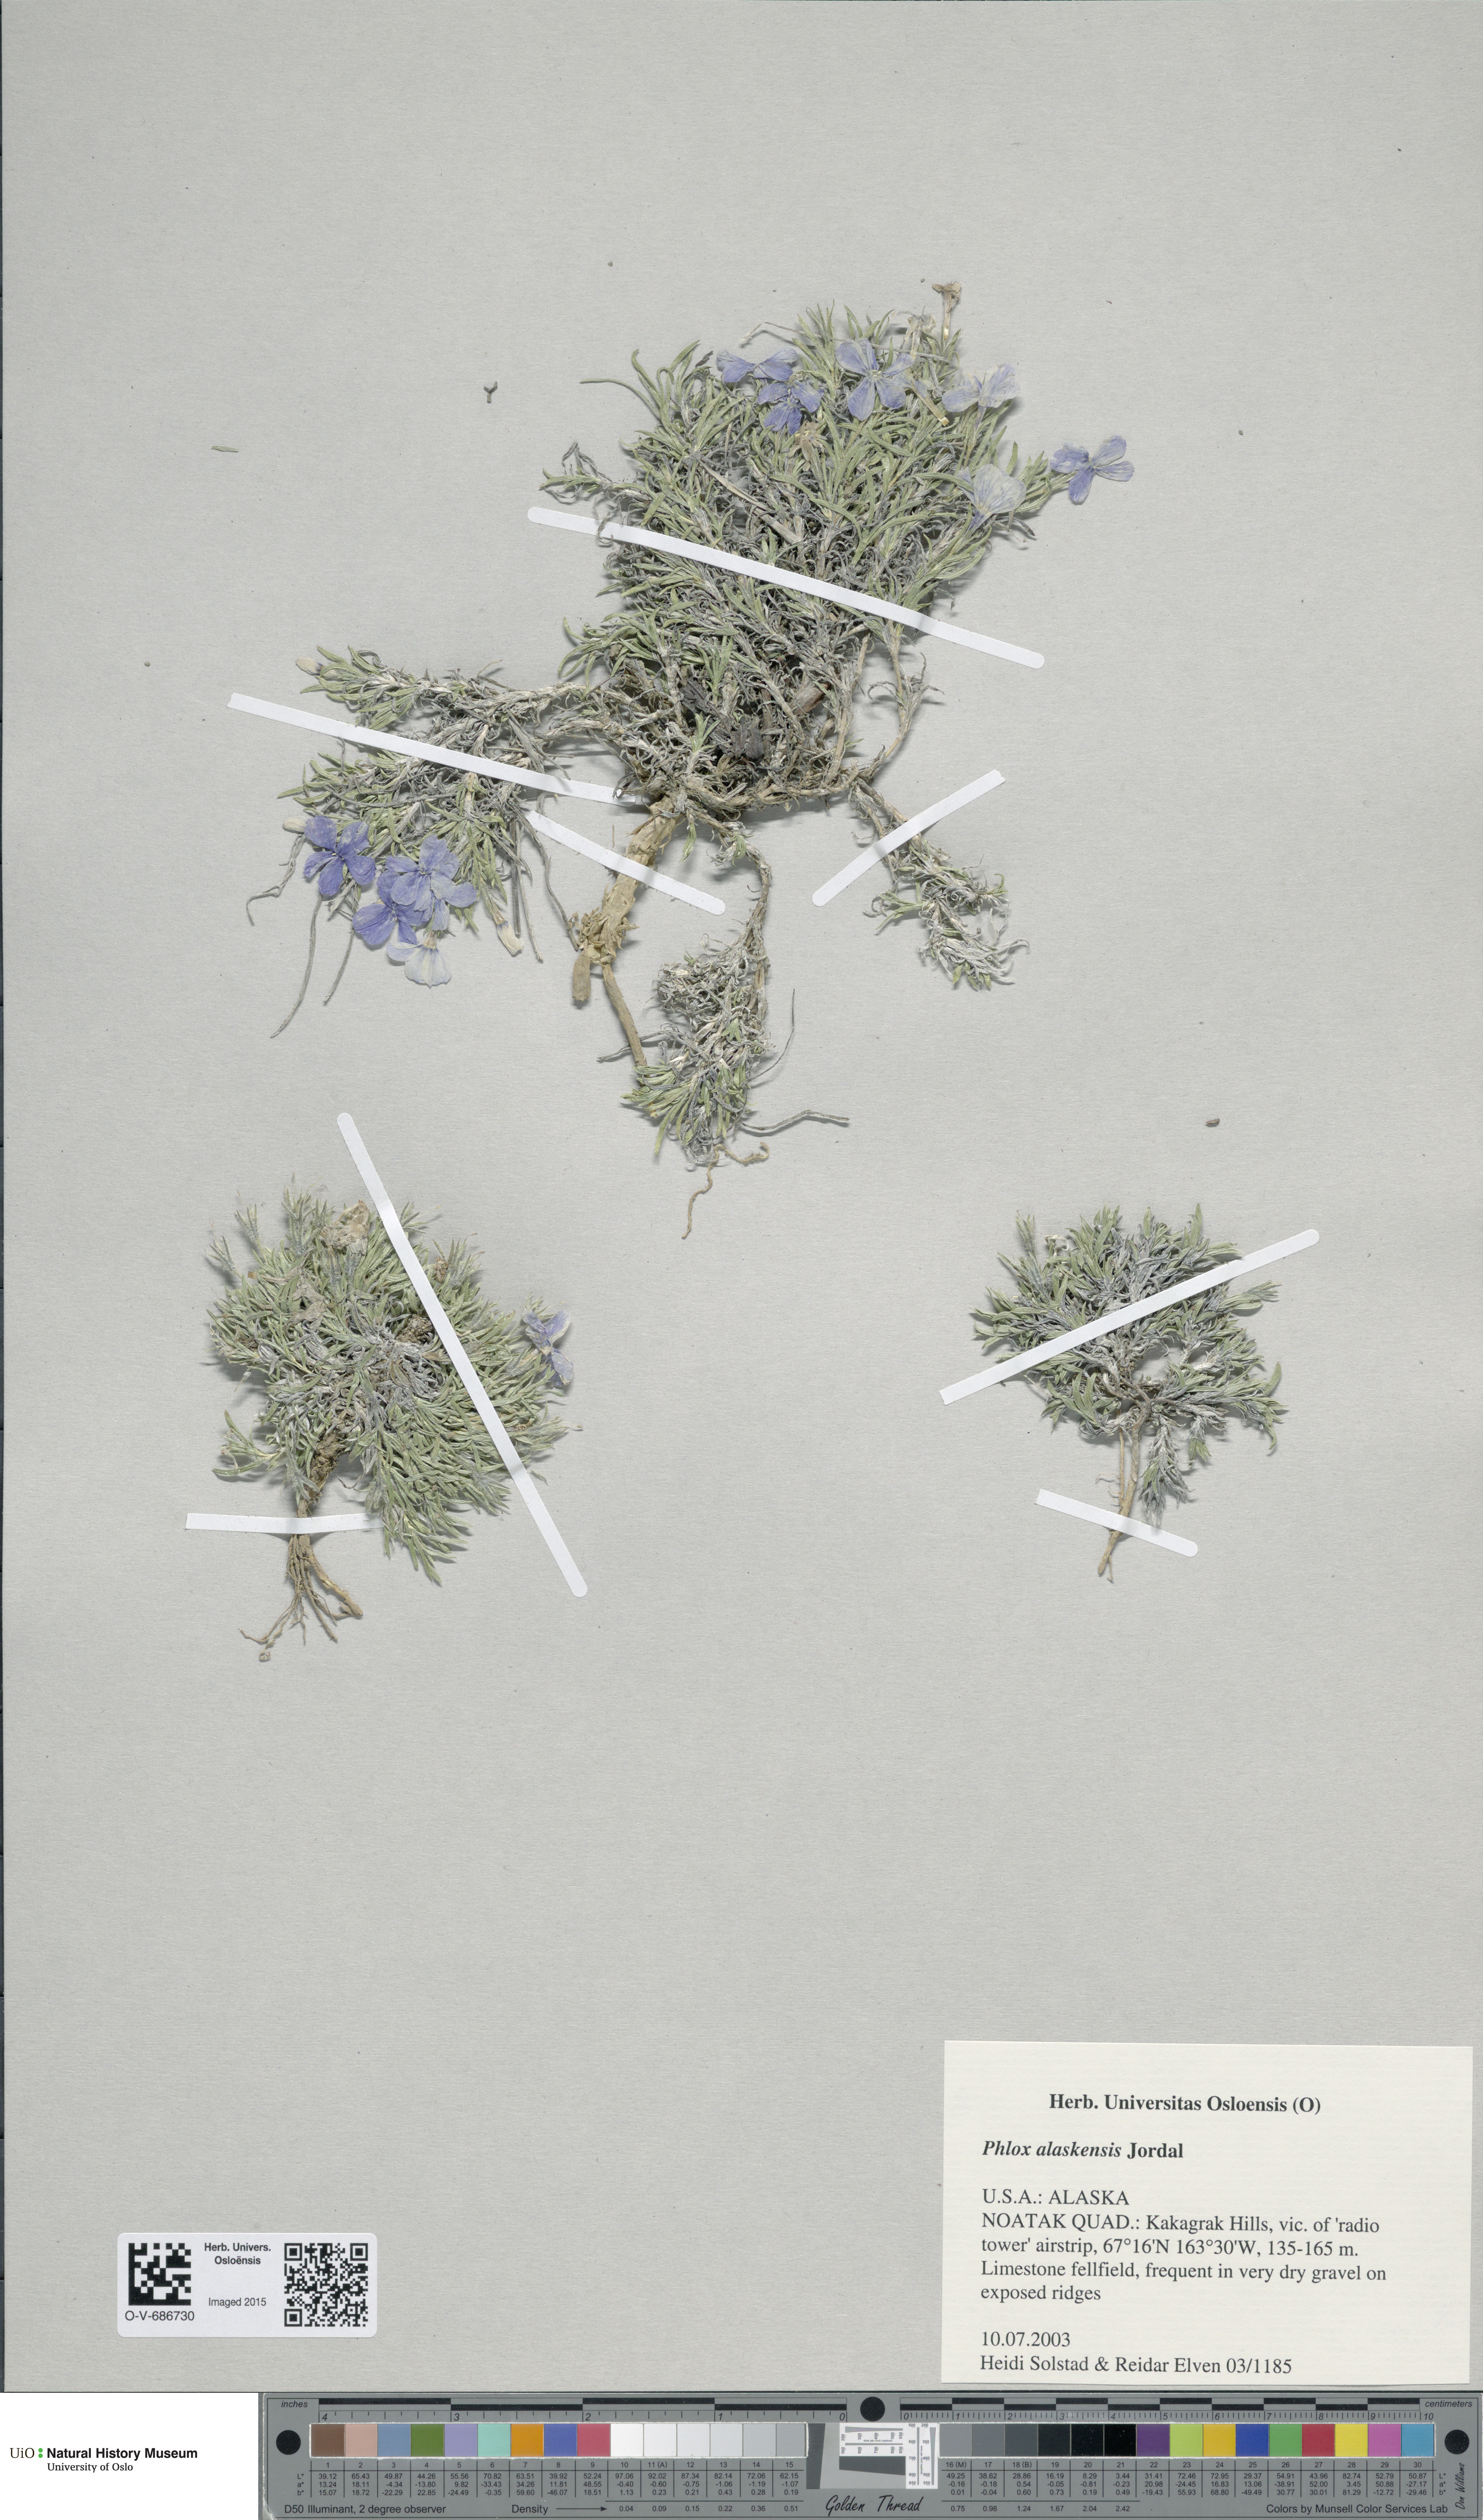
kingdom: Plantae
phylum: Tracheophyta
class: Magnoliopsida
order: Ericales
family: Polemoniaceae
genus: Phlox
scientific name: Phlox richardsonii
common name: Richardson's phlox
